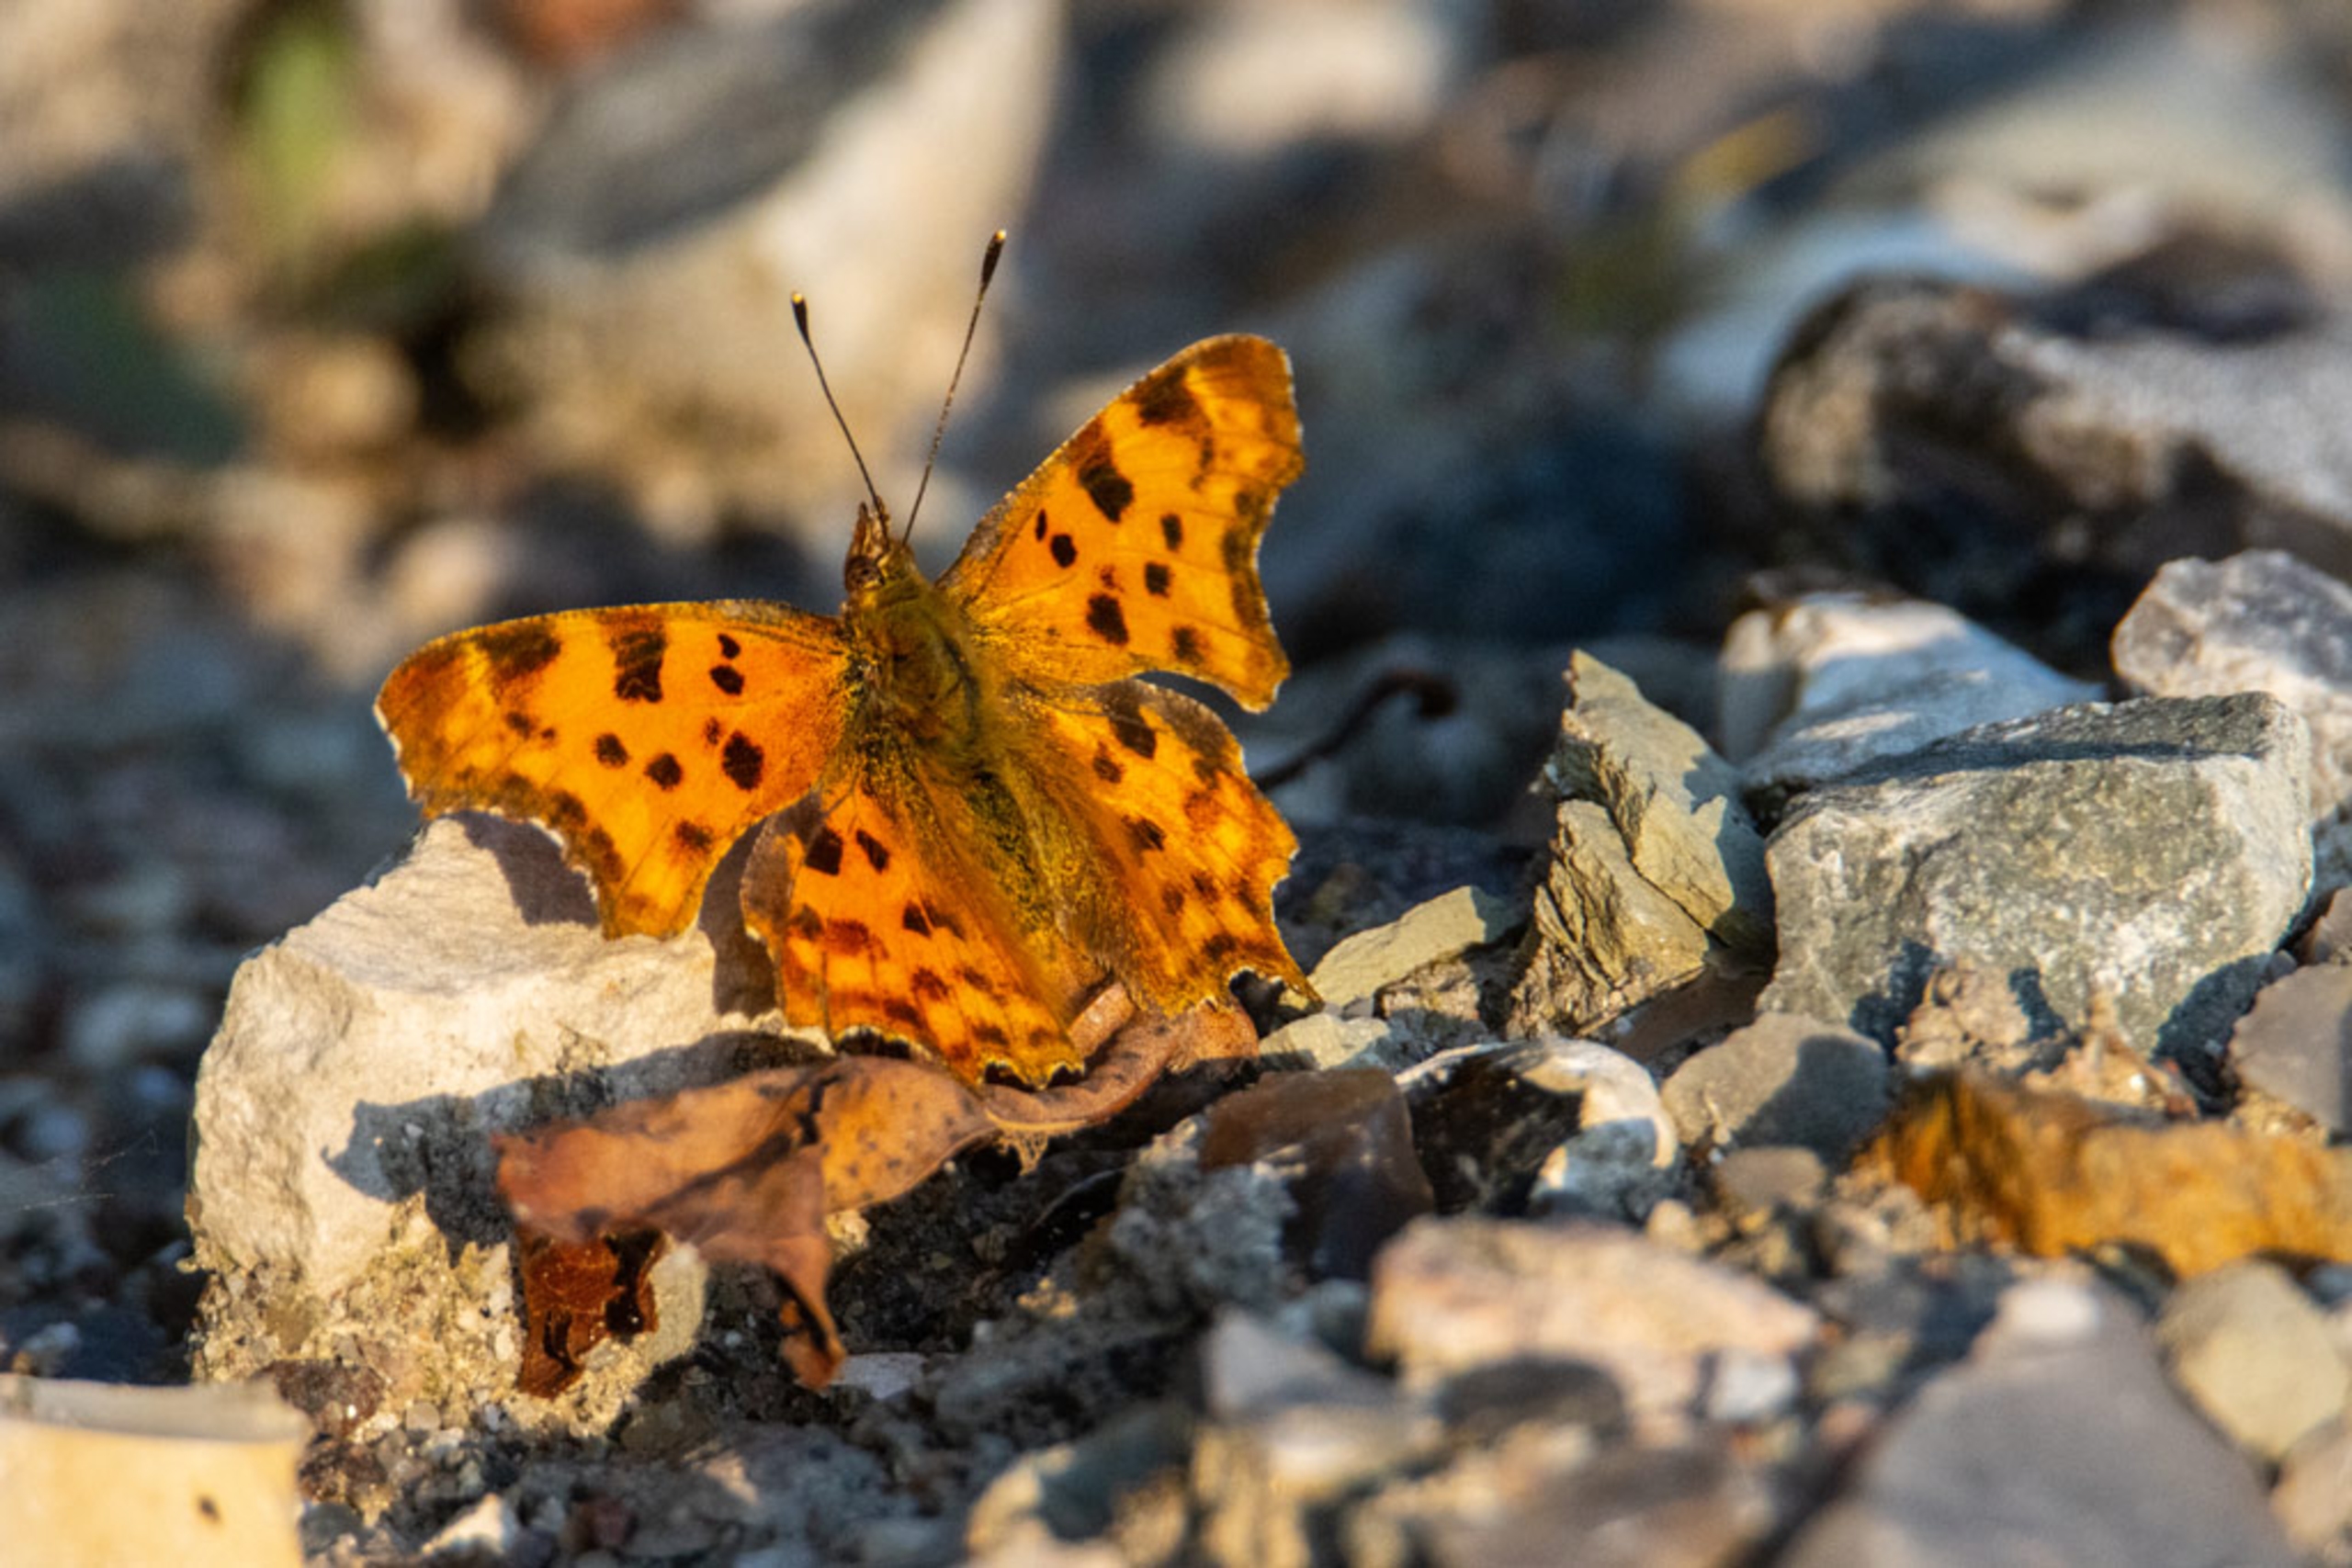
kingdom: Animalia
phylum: Arthropoda
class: Insecta
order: Lepidoptera
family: Nymphalidae
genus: Polygonia
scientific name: Polygonia c-album
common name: Det hvide C
